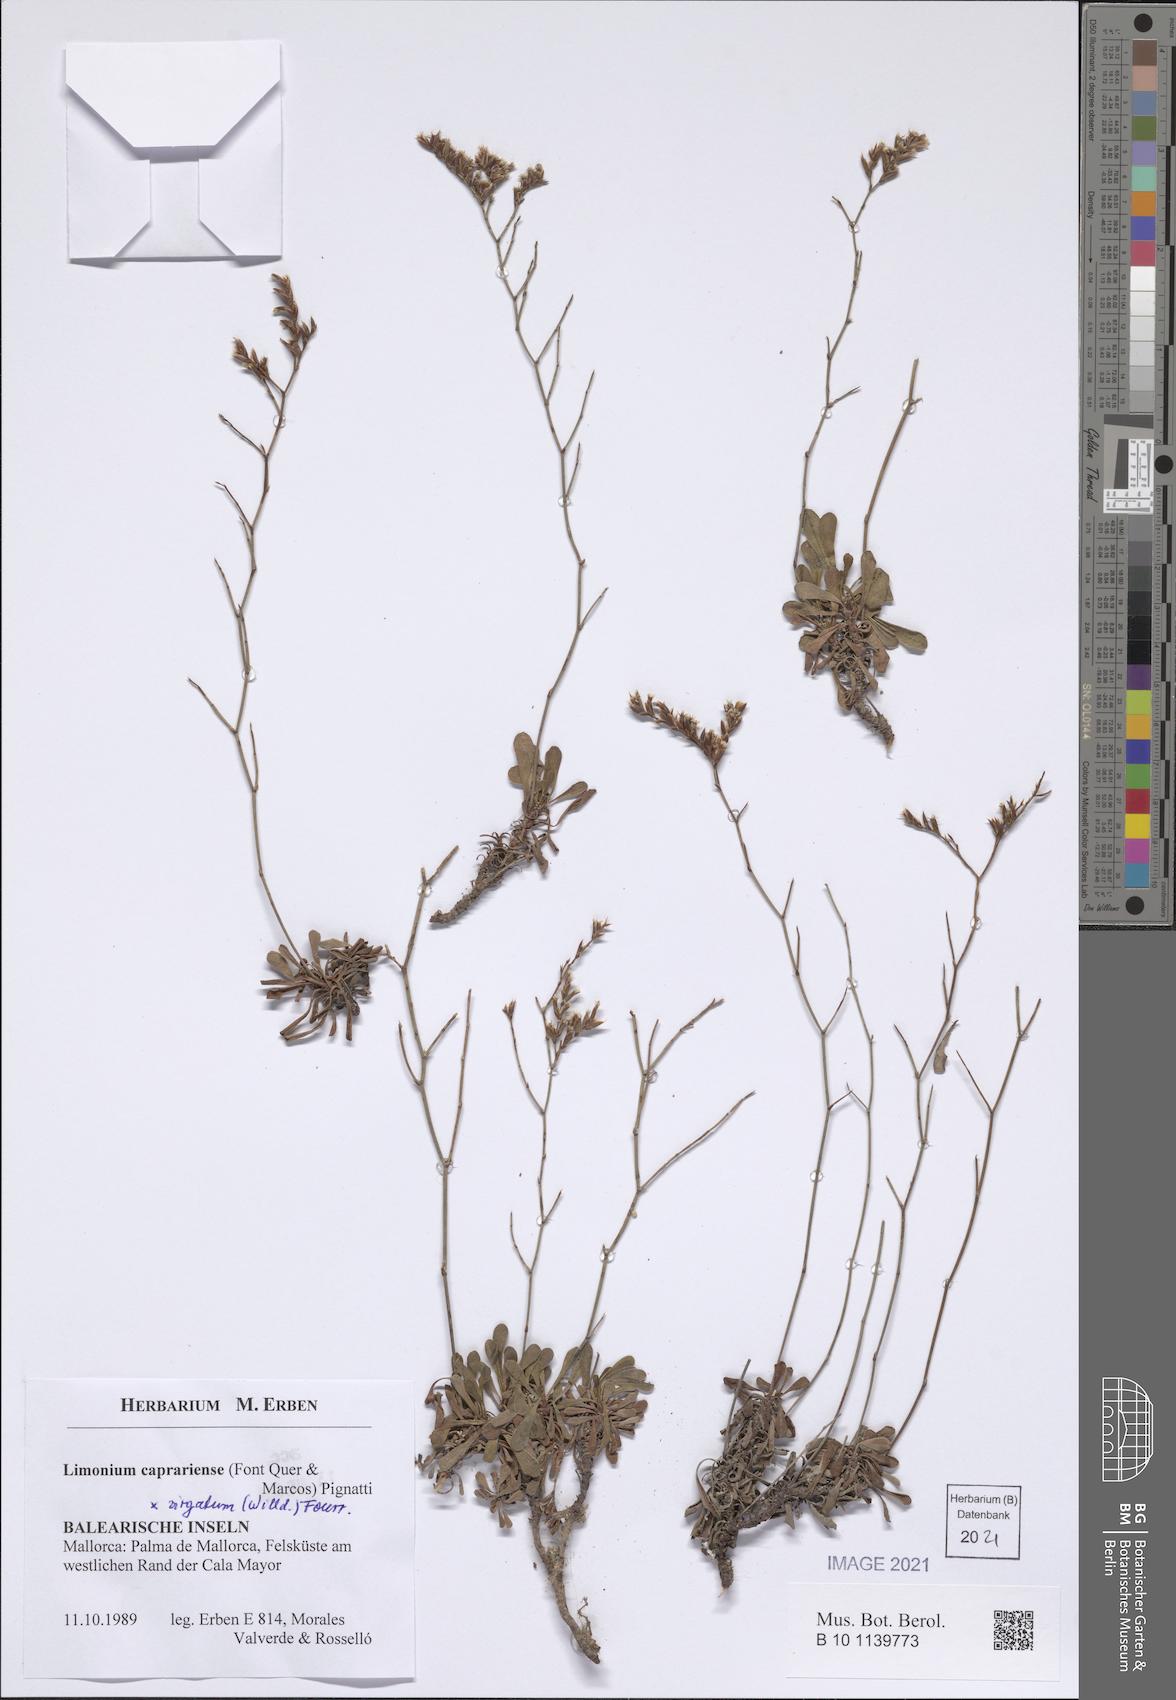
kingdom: Plantae
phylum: Tracheophyta
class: Magnoliopsida
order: Caryophyllales
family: Plumbaginaceae
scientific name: Plumbaginaceae
